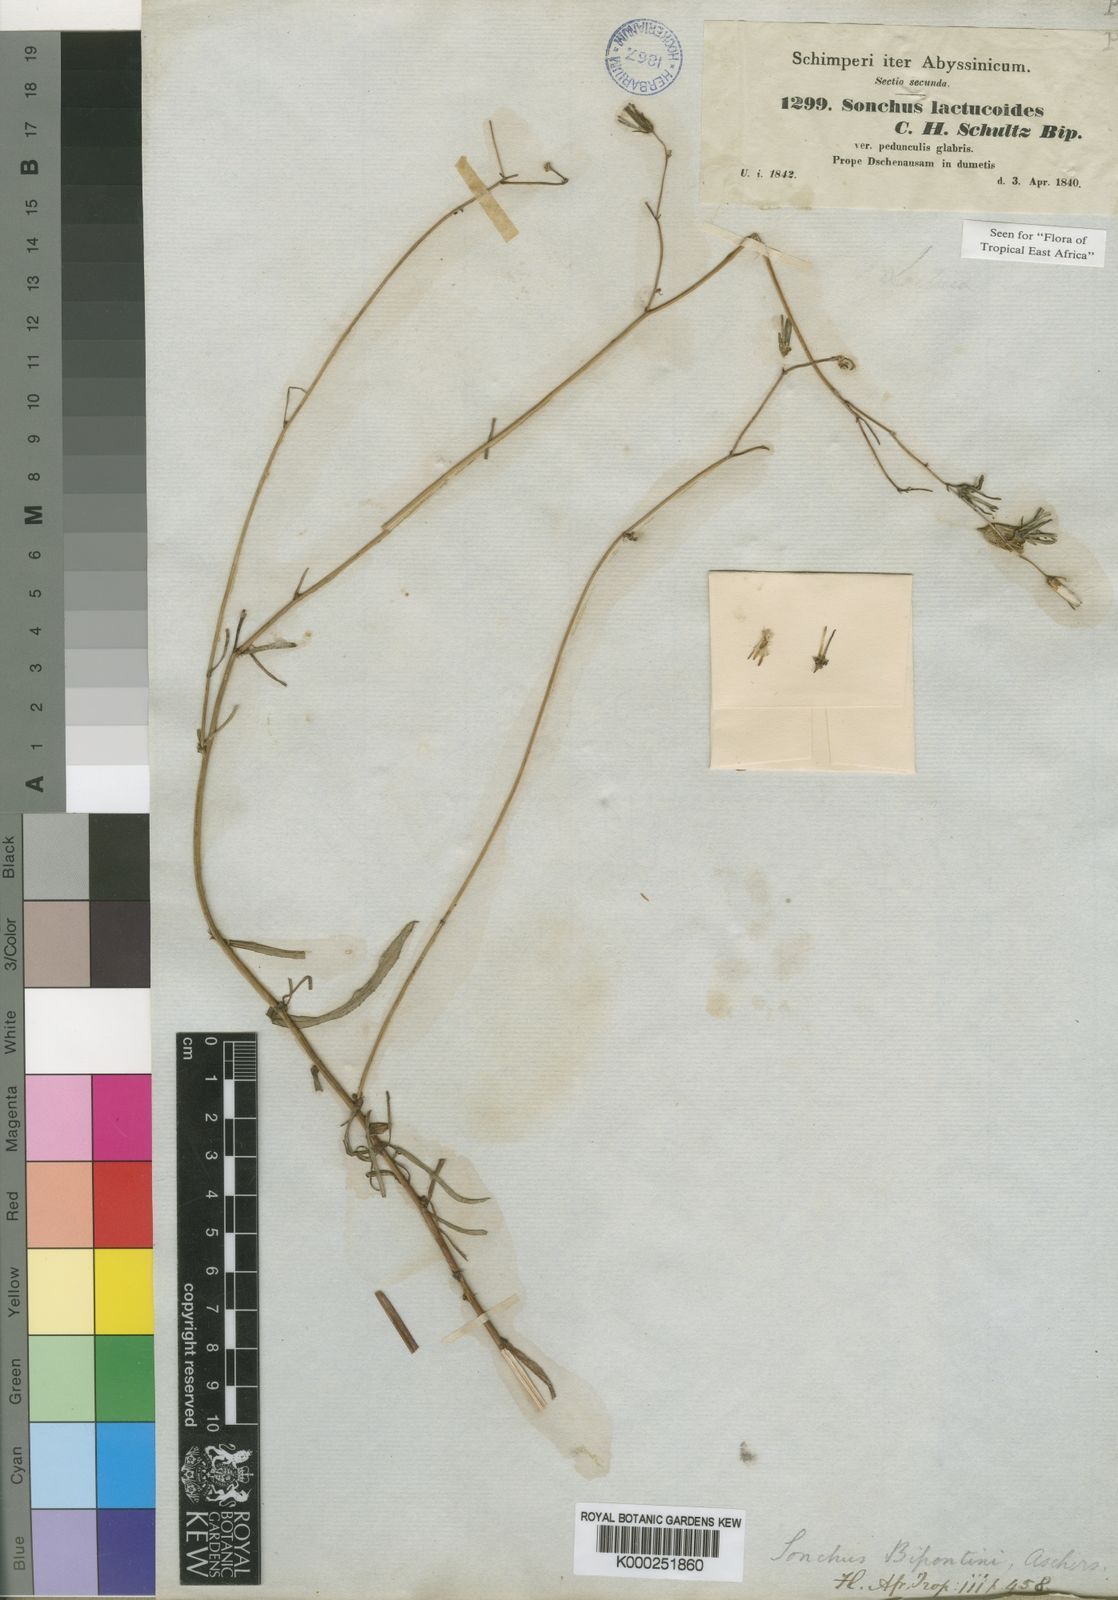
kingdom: Plantae
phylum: Tracheophyta
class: Magnoliopsida
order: Asterales
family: Asteraceae
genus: Sonchus
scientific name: Sonchus
